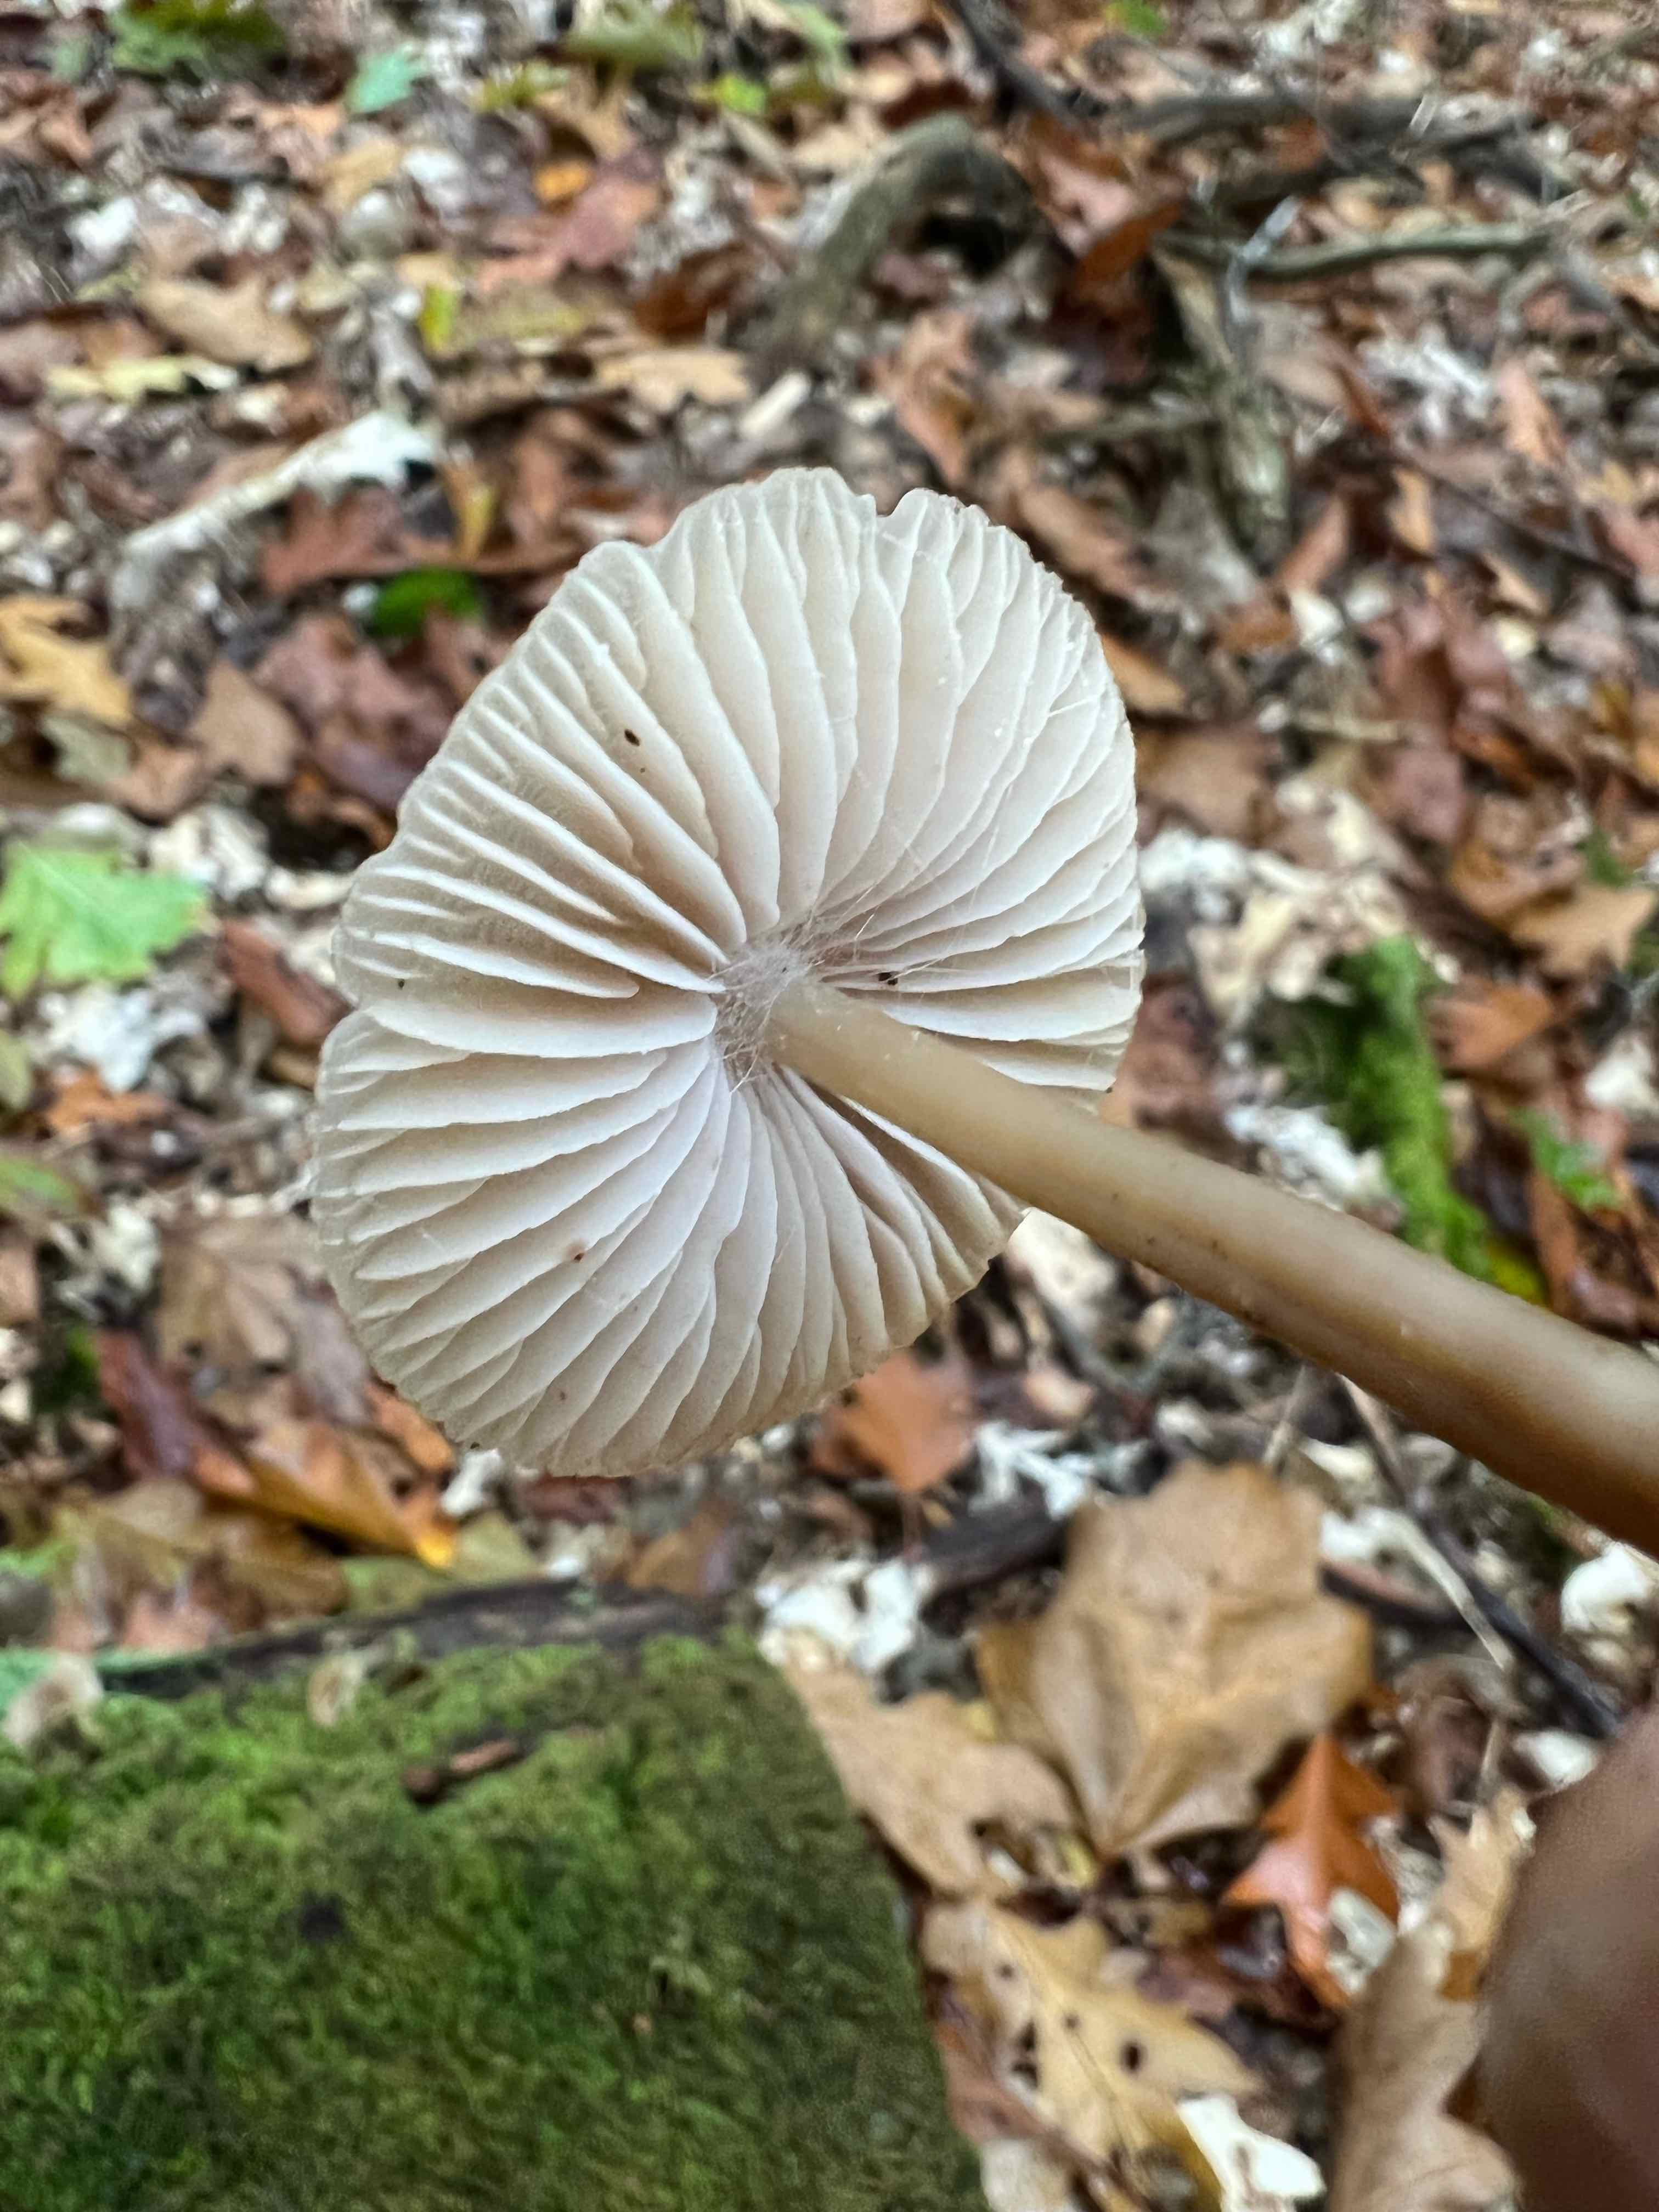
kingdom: Fungi
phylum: Basidiomycota
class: Agaricomycetes
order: Agaricales
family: Mycenaceae
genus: Mycena
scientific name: Mycena galericulata
